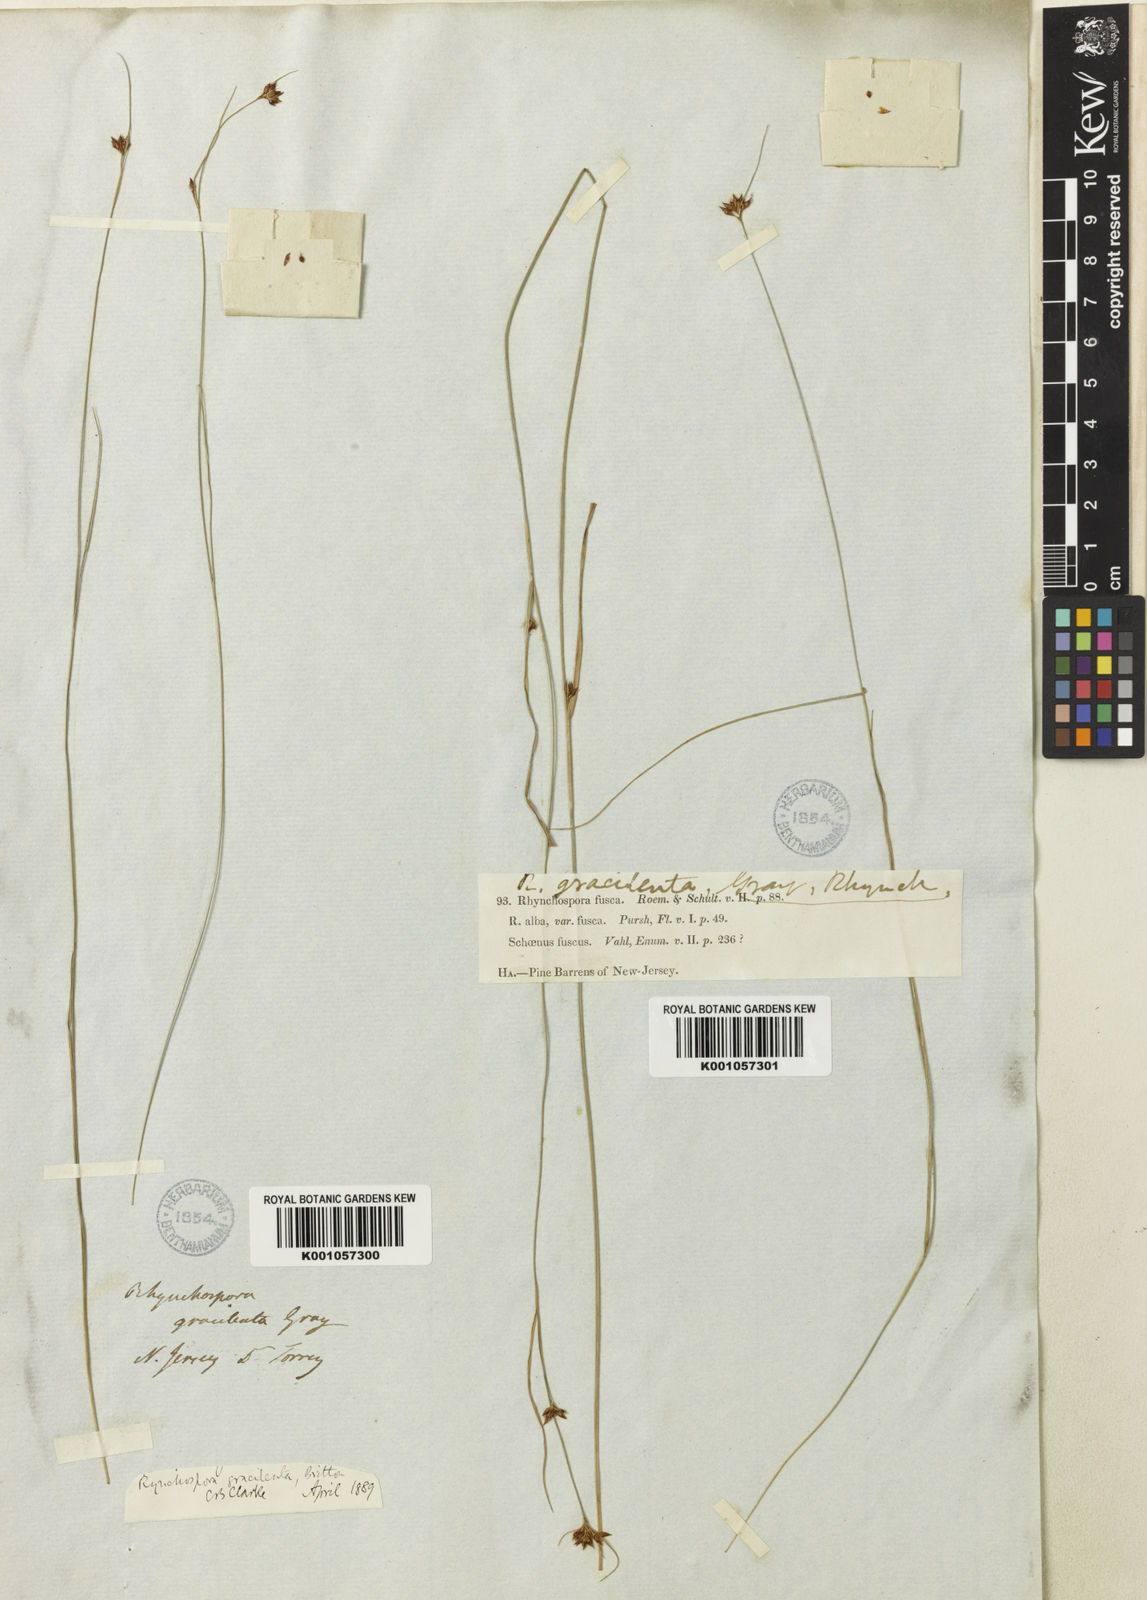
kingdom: Plantae
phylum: Tracheophyta
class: Liliopsida
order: Poales
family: Cyperaceae
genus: Rhynchospora
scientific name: Rhynchospora gracilenta
